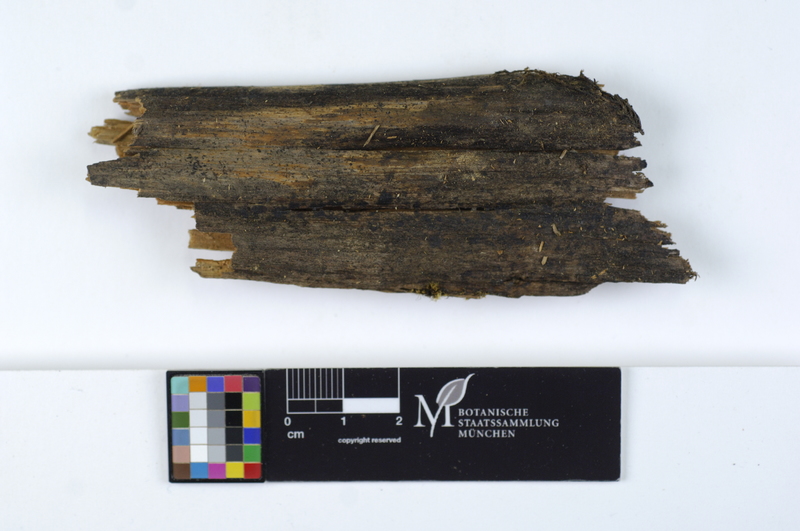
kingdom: Fungi
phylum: Basidiomycota
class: Agaricomycetes
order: Polyporales
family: Dacryobolaceae
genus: Dacryobolus
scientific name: Dacryobolus sudans
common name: Weeping toothcrust
